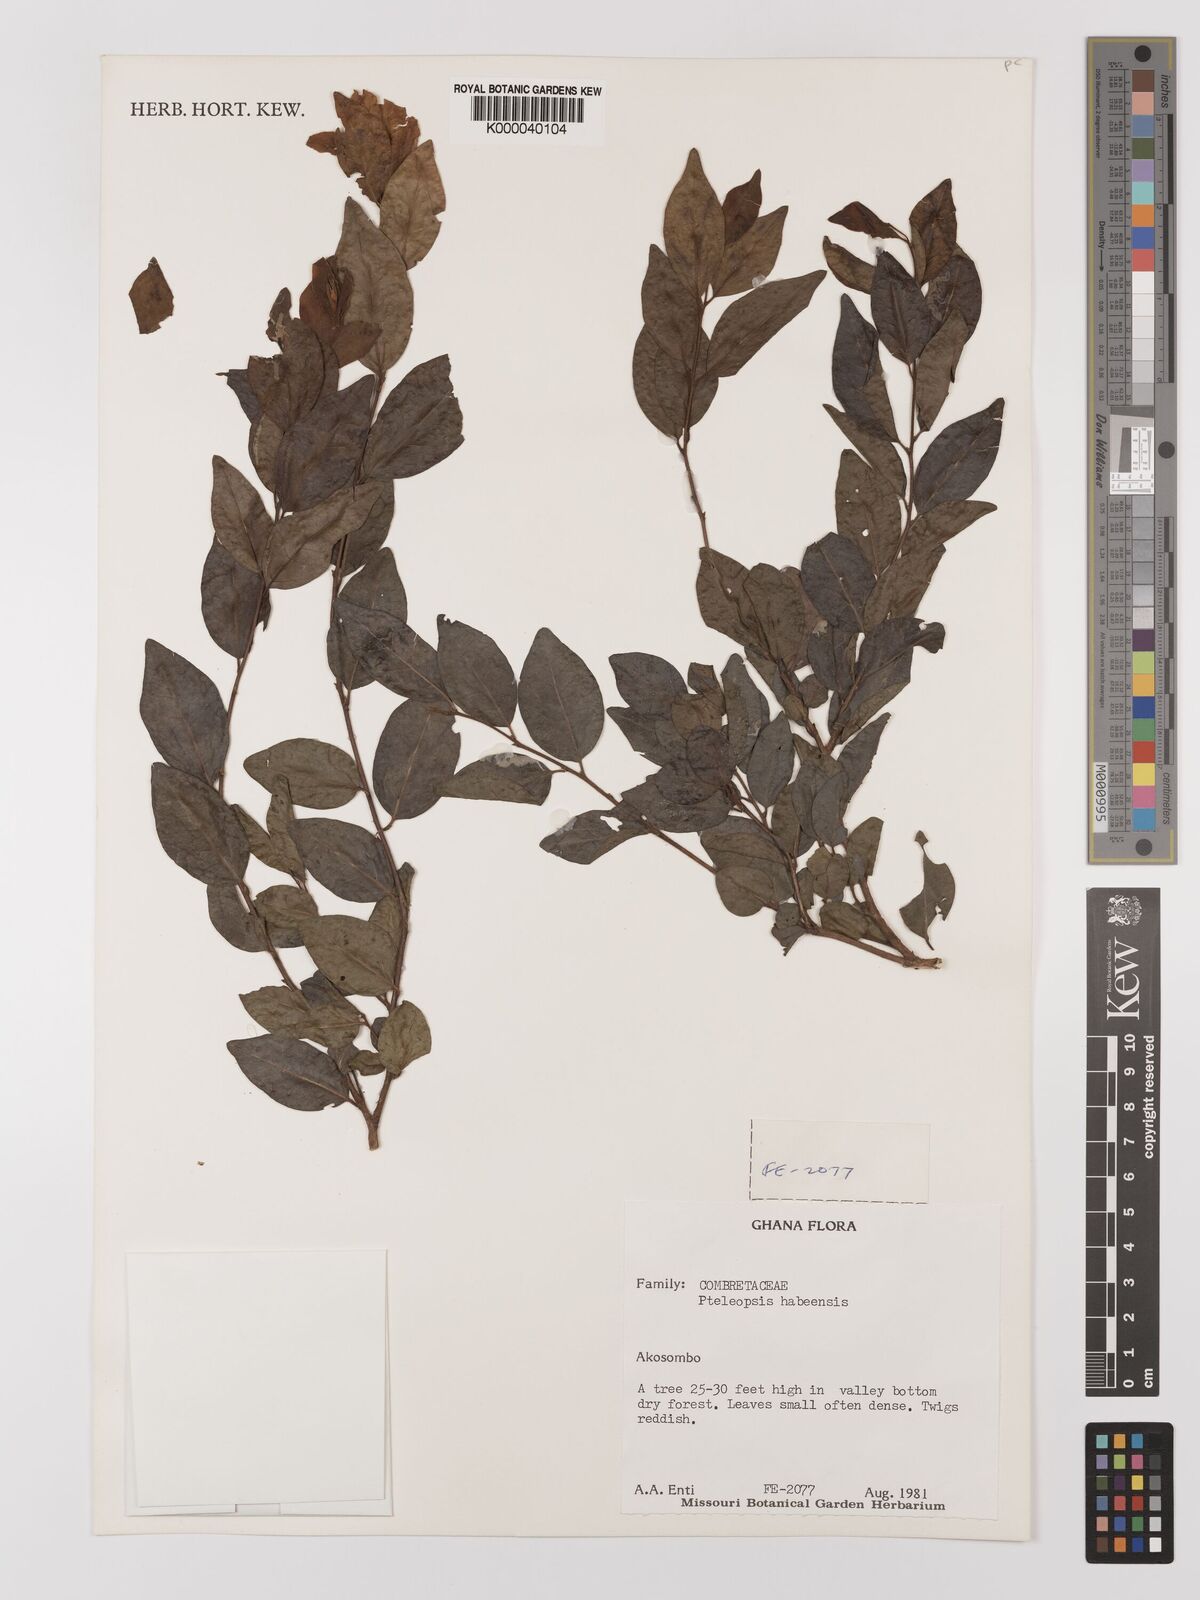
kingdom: Plantae
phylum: Tracheophyta
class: Magnoliopsida
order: Myrtales
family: Combretaceae
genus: Terminalia
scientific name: Terminalia
